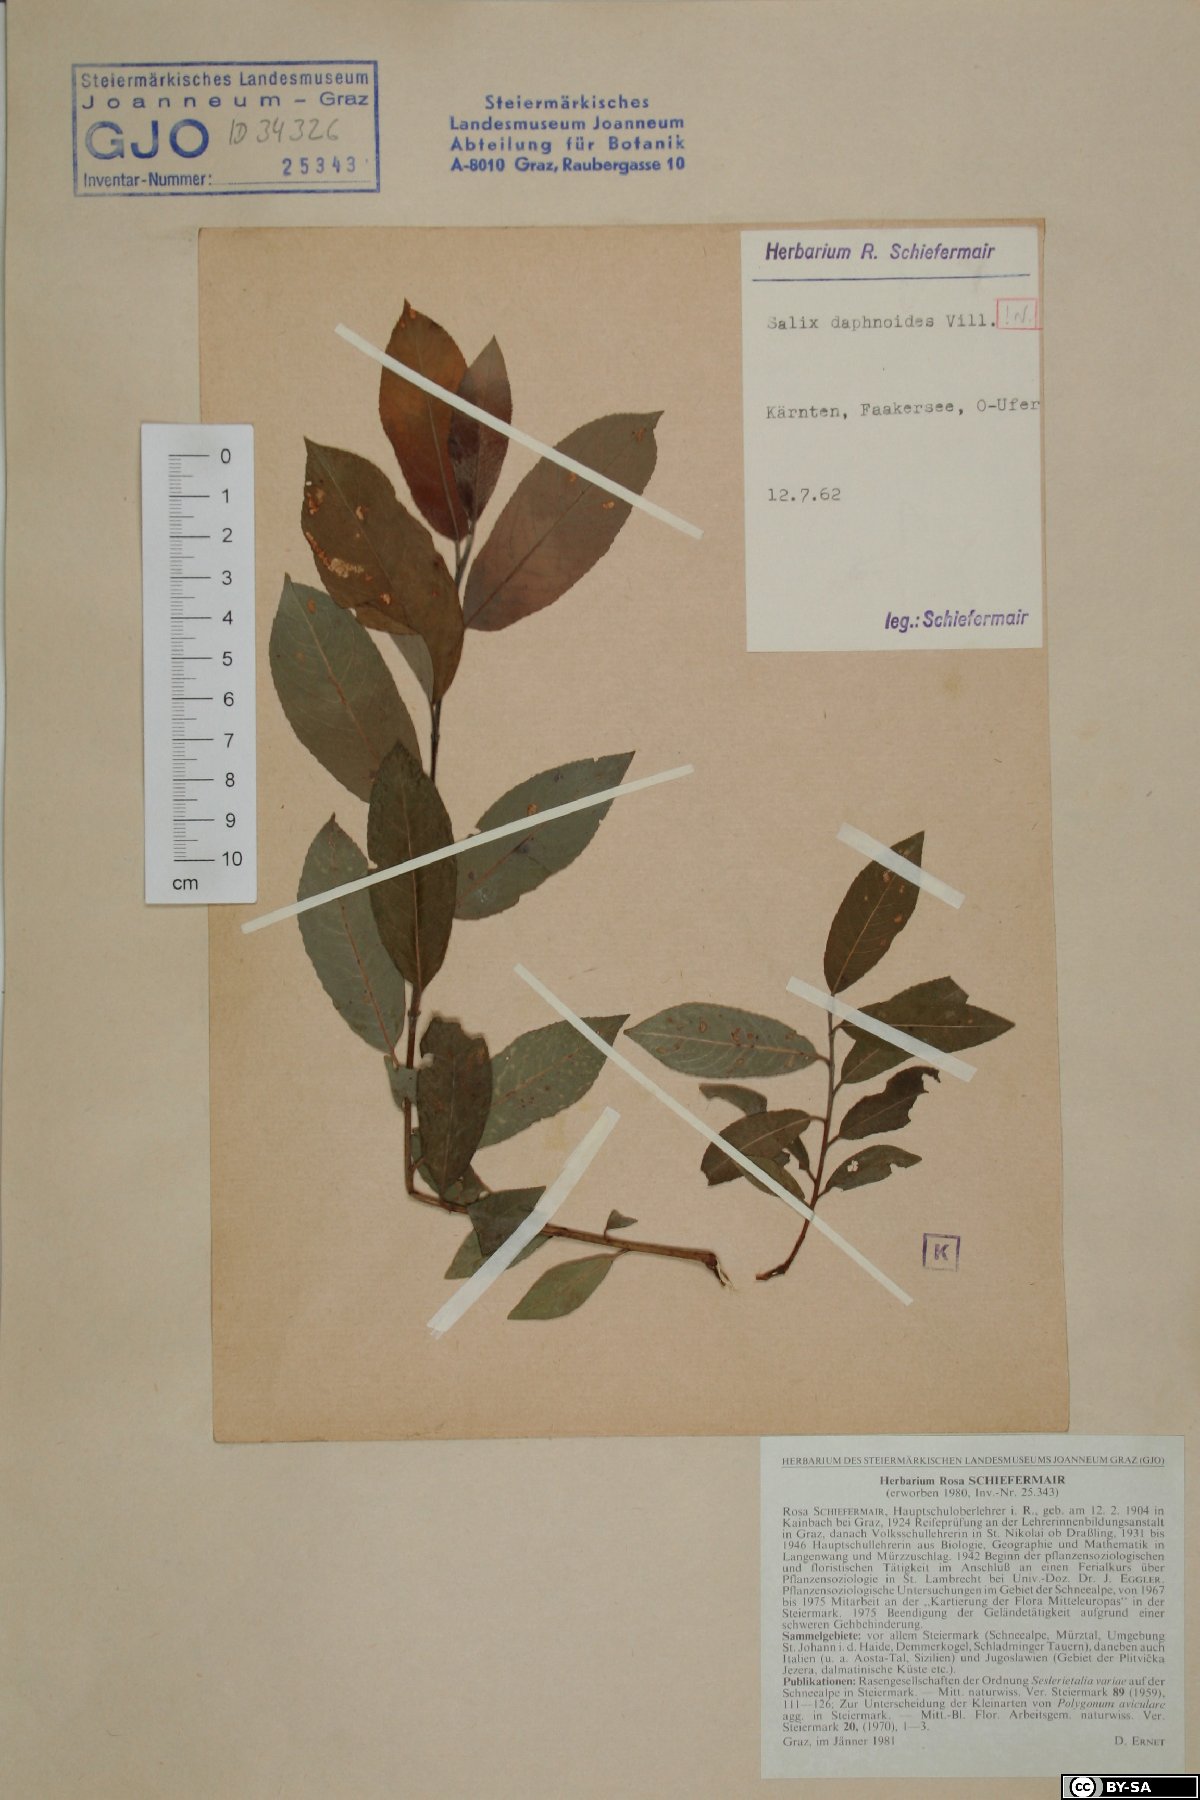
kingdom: Plantae
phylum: Tracheophyta
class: Magnoliopsida
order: Malpighiales
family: Salicaceae
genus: Salix
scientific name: Salix daphnoides
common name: European violet-willow
